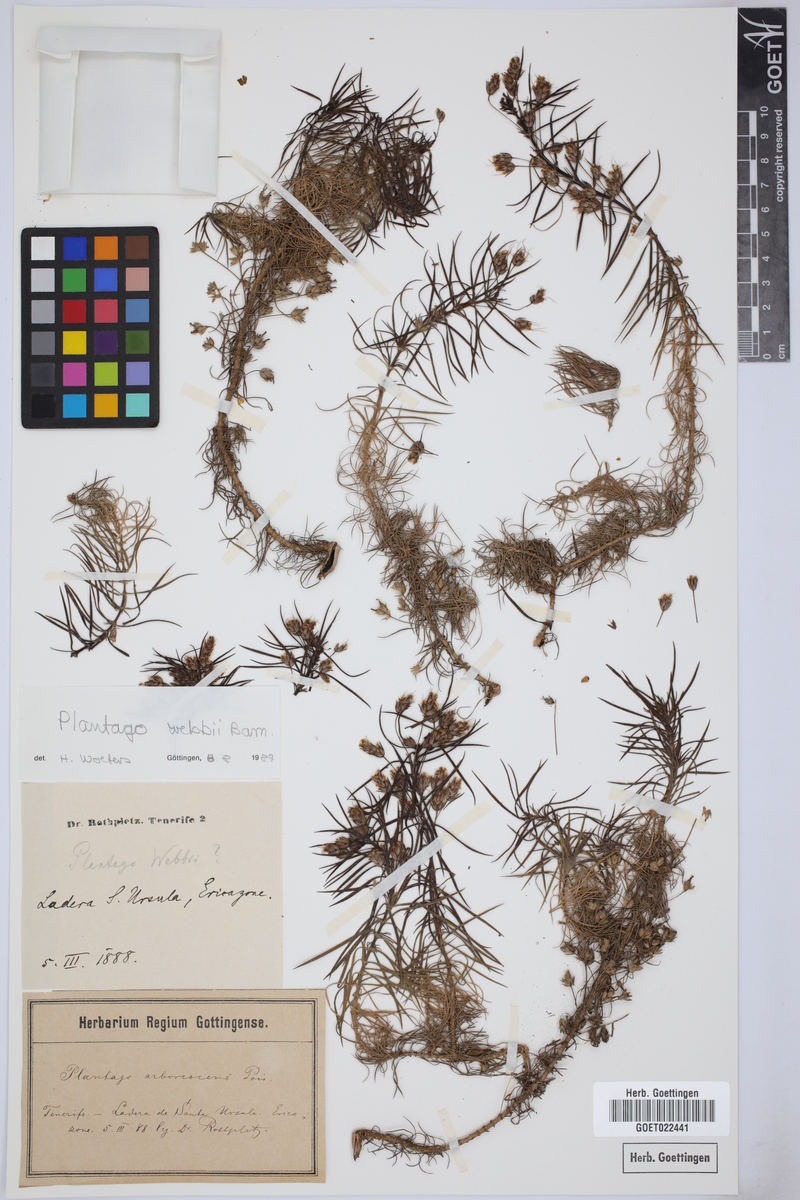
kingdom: Plantae
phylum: Tracheophyta
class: Magnoliopsida
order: Lamiales
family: Plantaginaceae
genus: Plantago
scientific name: Plantago webbii
